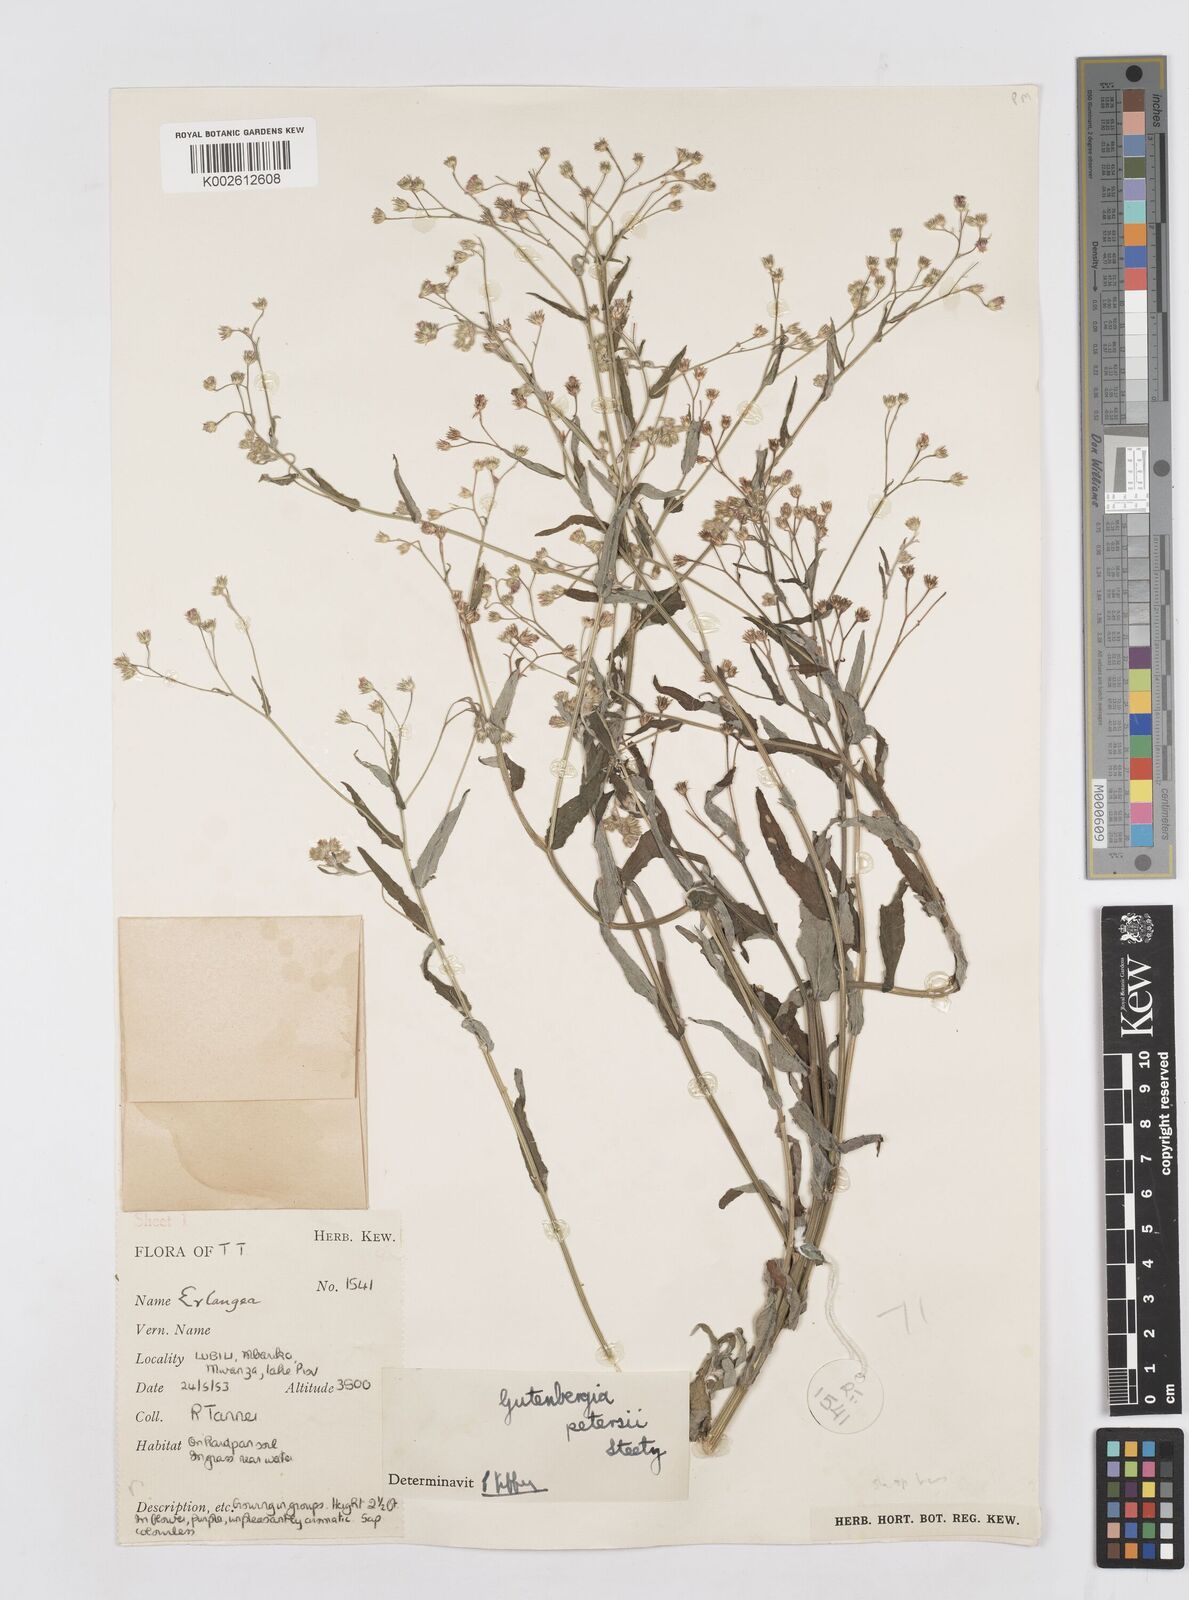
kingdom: Plantae
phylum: Tracheophyta
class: Magnoliopsida
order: Asterales
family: Asteraceae
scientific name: Asteraceae
